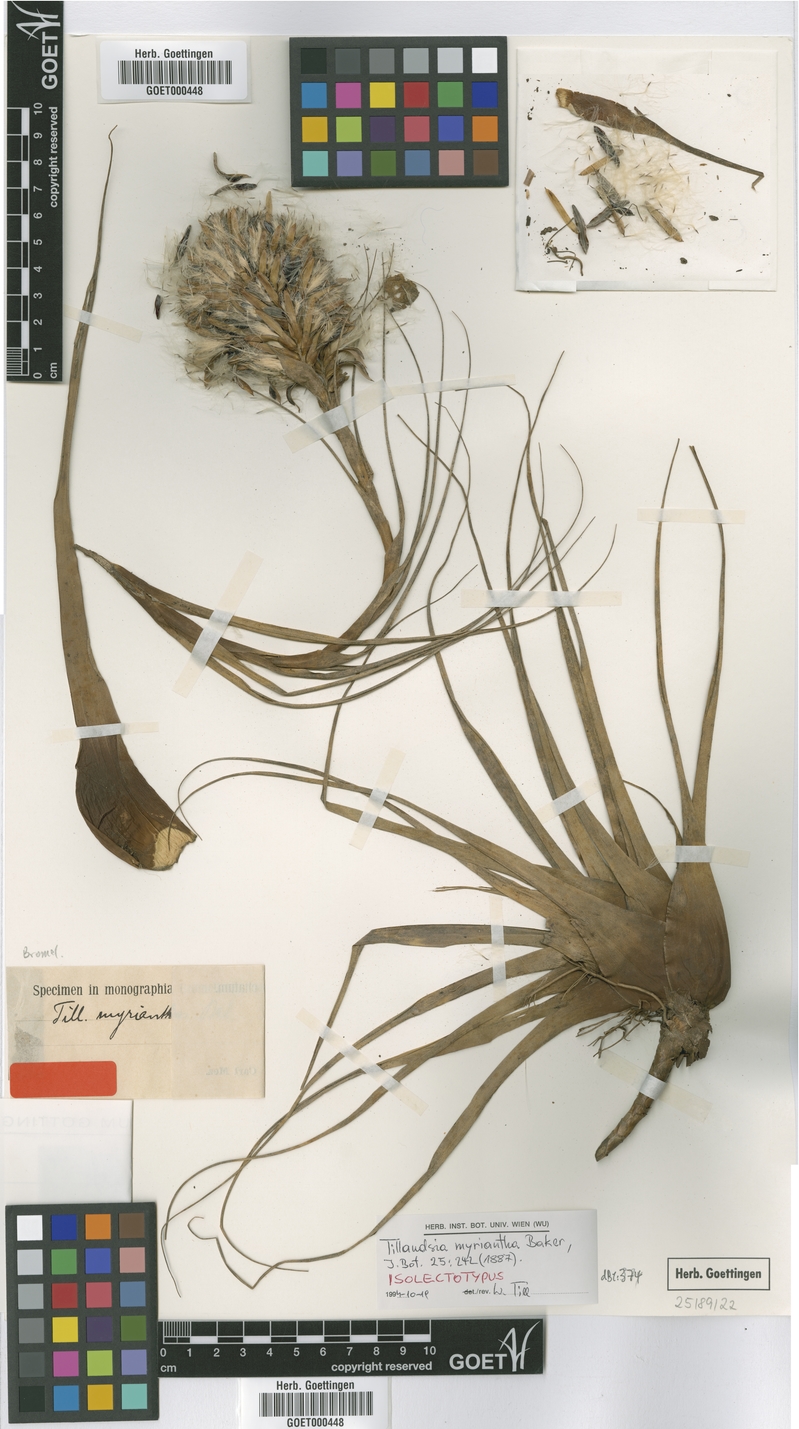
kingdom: Plantae
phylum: Tracheophyta
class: Liliopsida
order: Poales
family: Bromeliaceae
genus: Vriesea
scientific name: Vriesea myriantha
